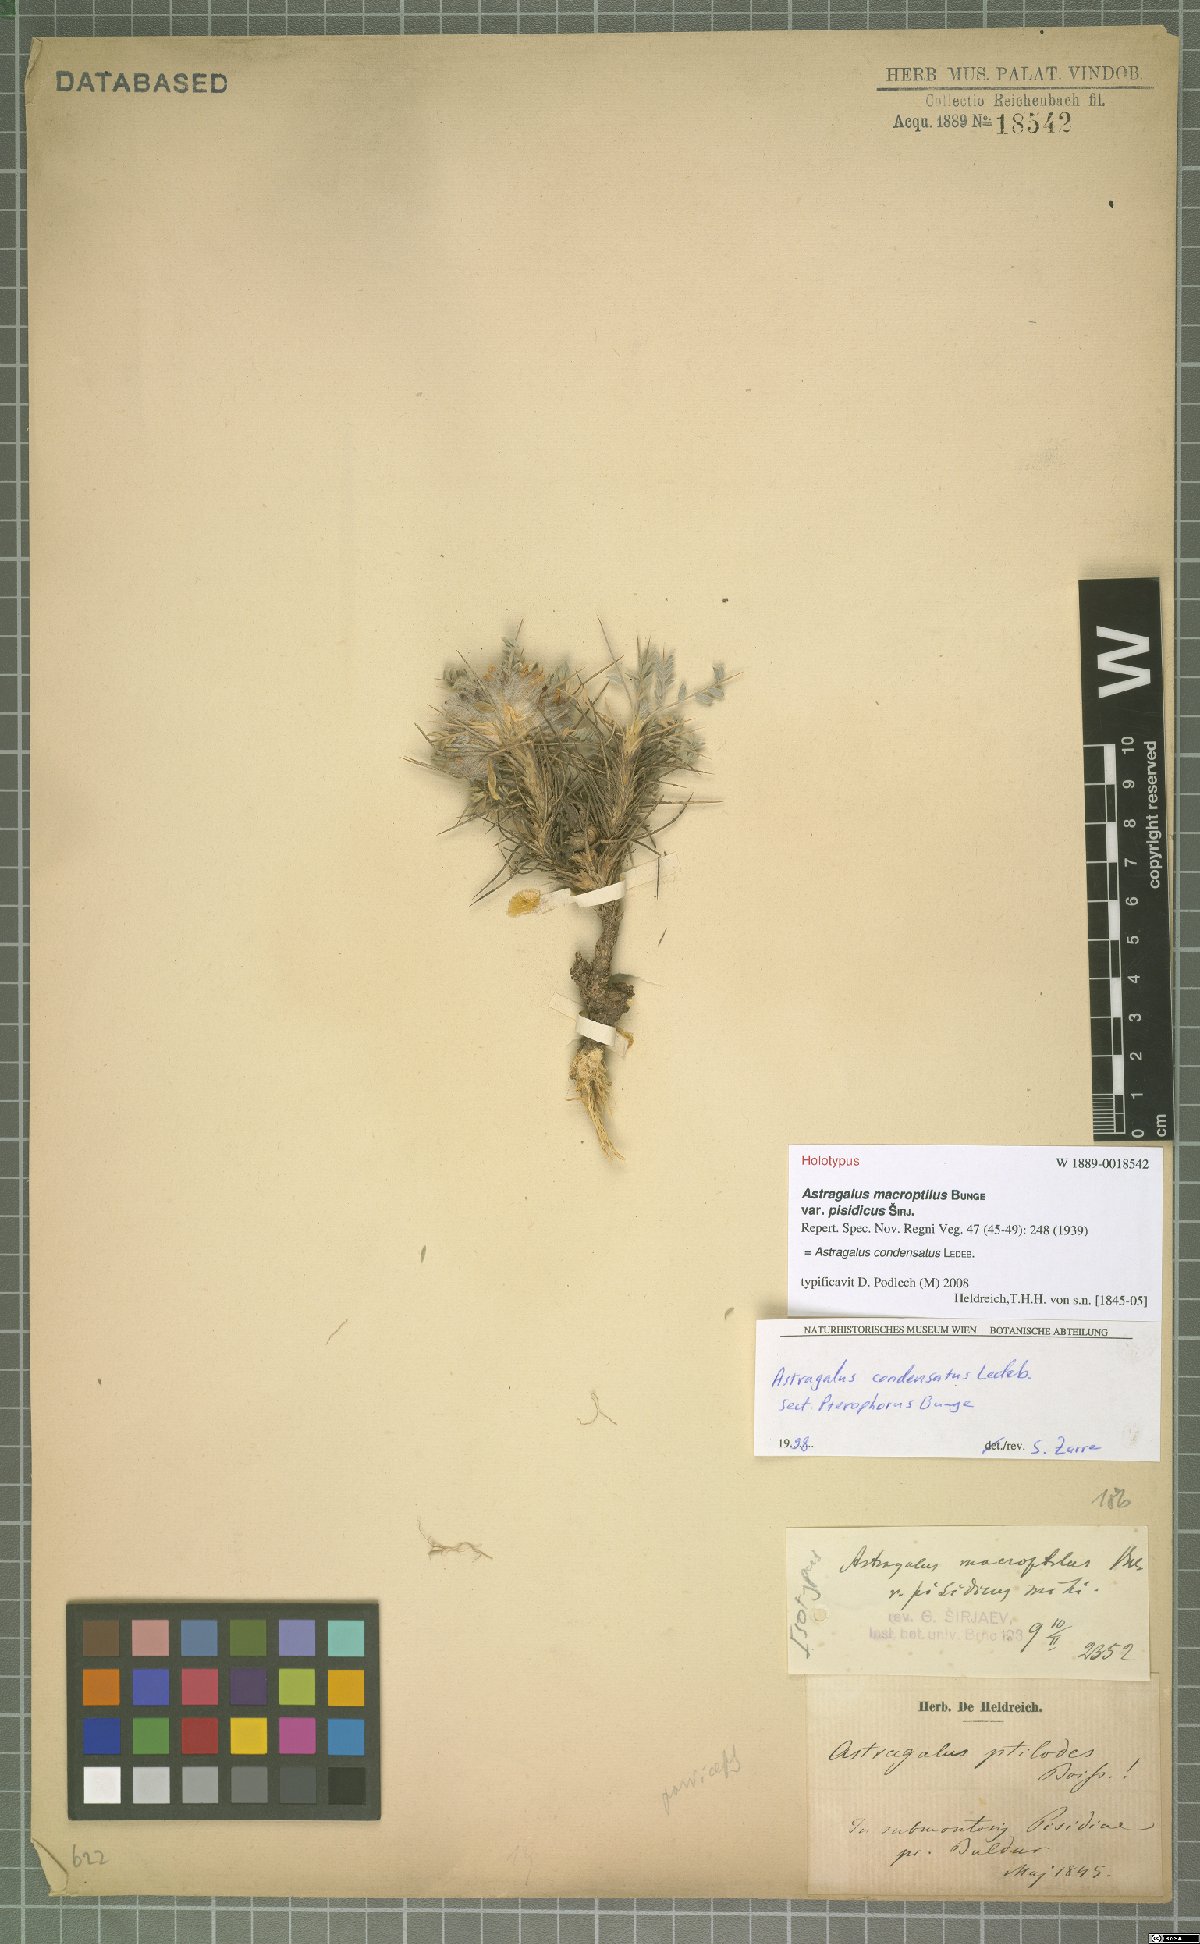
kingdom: Plantae
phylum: Tracheophyta
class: Magnoliopsida
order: Fabales
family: Fabaceae
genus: Astragalus
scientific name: Astragalus condensatus
